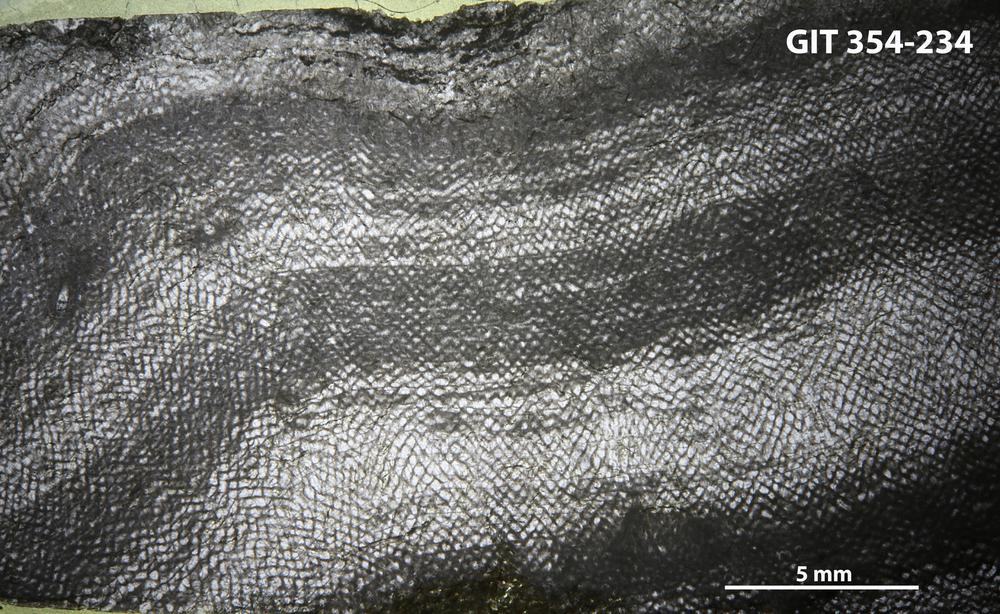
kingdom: Animalia
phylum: Porifera
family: Ecclimadictyidae
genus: Ecclimadictyon
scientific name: Ecclimadictyon porkuni
